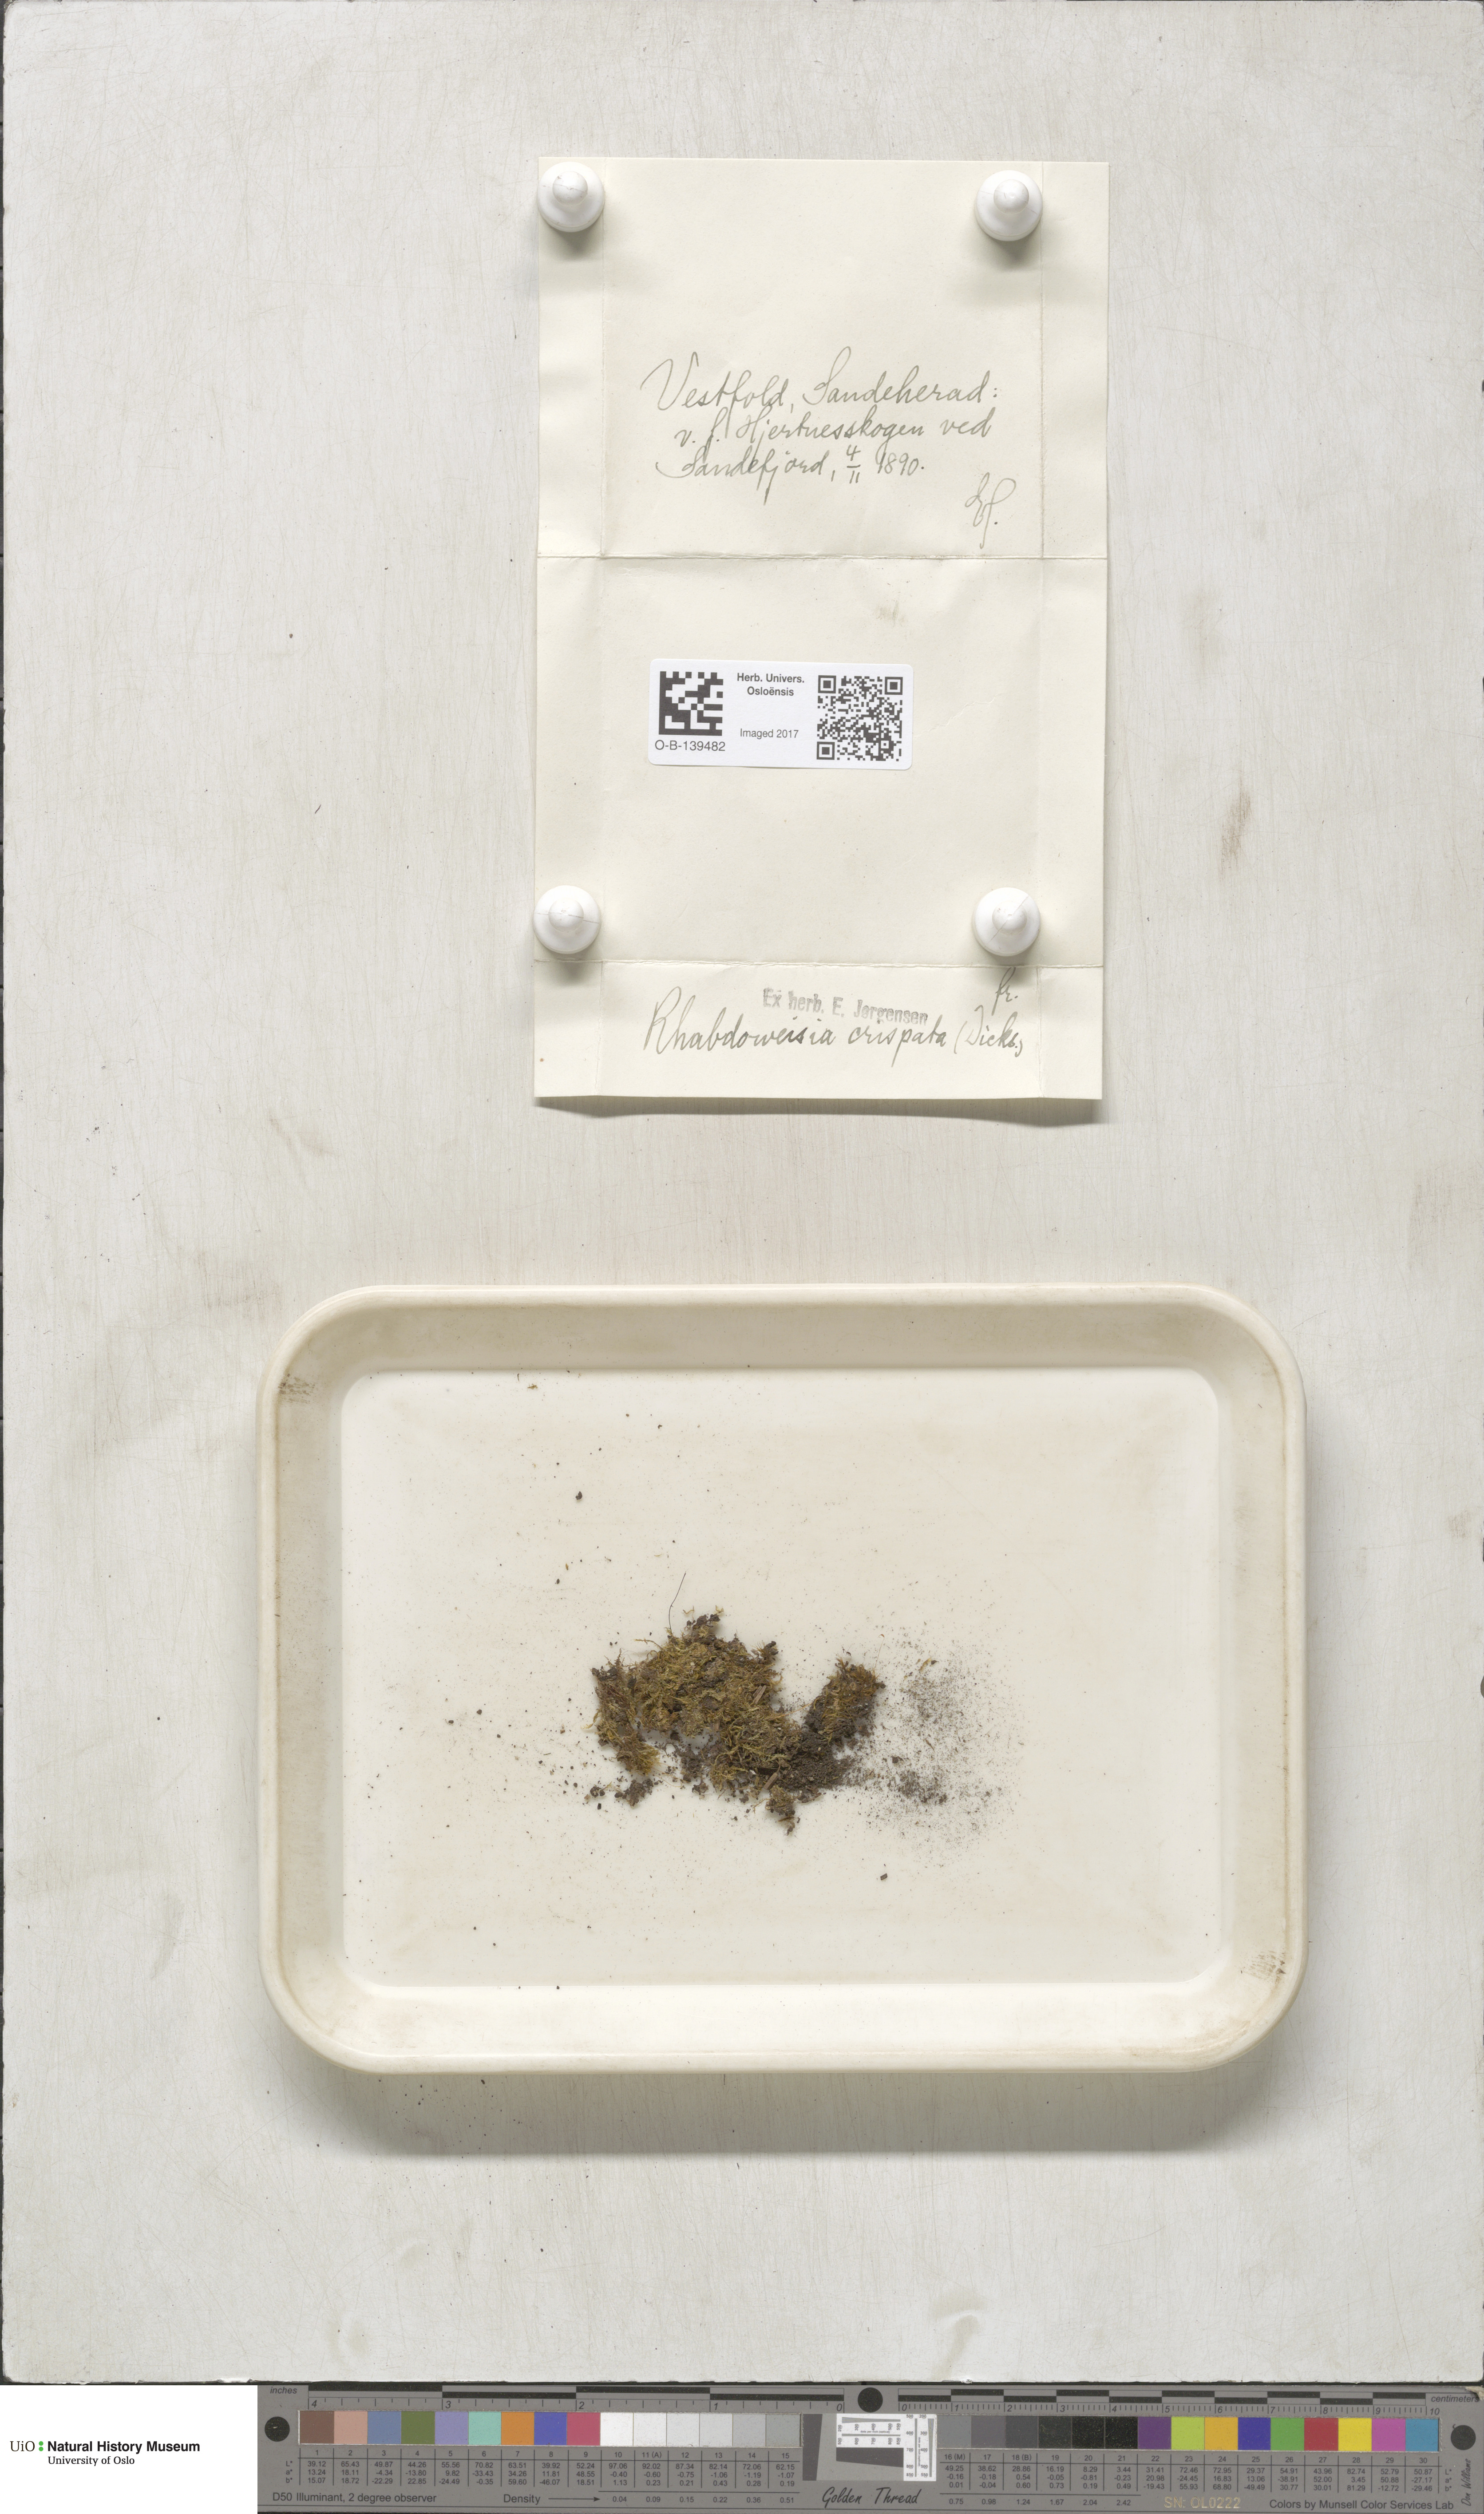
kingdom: Plantae
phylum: Bryophyta
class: Bryopsida
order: Dicranales
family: Rhabdoweisiaceae
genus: Rhabdoweisia
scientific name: Rhabdoweisia crispata
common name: Fine-toothed streak moss
